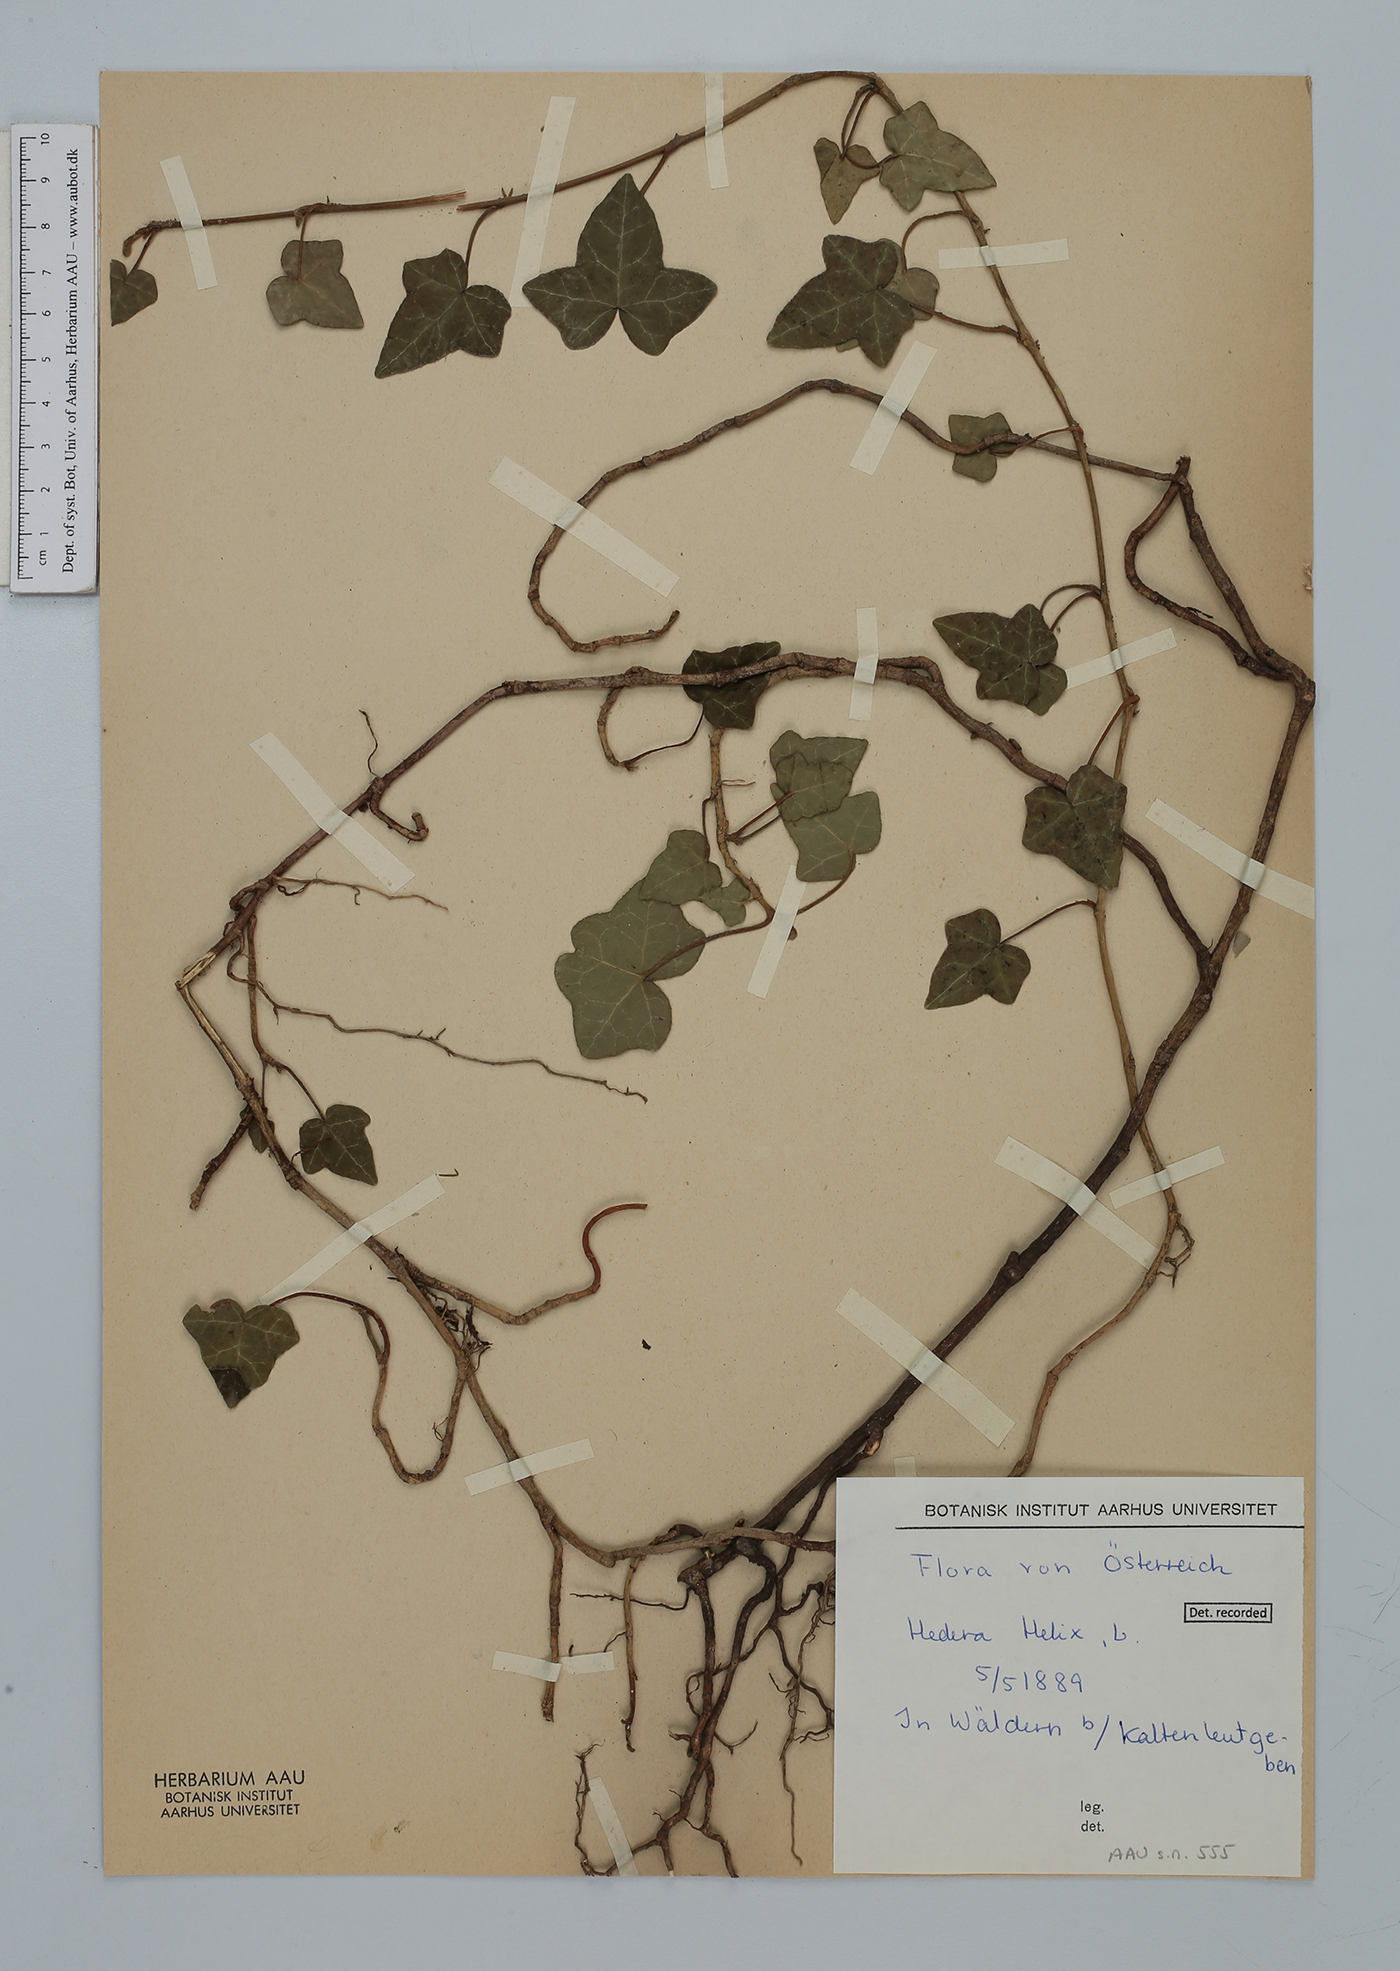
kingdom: Plantae
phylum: Tracheophyta
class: Magnoliopsida
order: Apiales
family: Araliaceae
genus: Hedera
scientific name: Hedera helix
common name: Ivy
